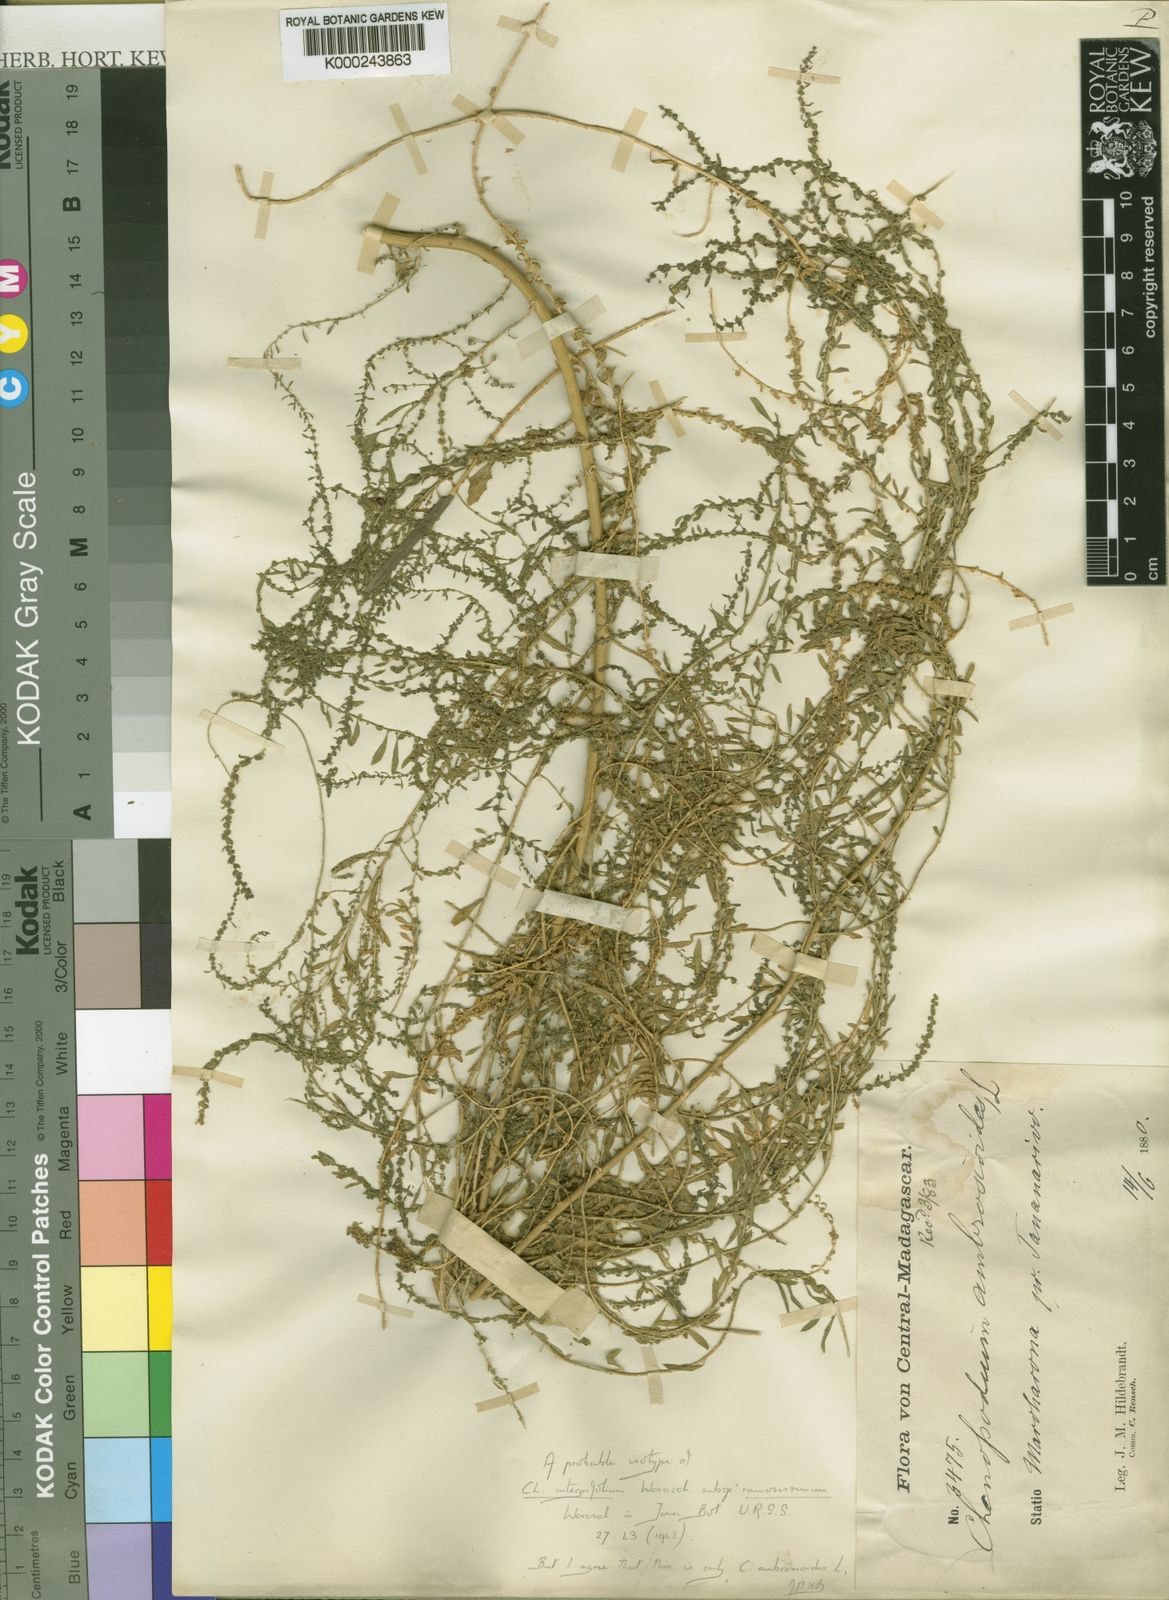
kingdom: Plantae
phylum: Tracheophyta
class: Magnoliopsida
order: Caryophyllales
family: Amaranthaceae
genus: Dysphania
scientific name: Dysphania ambrosioides
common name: Wormseed
